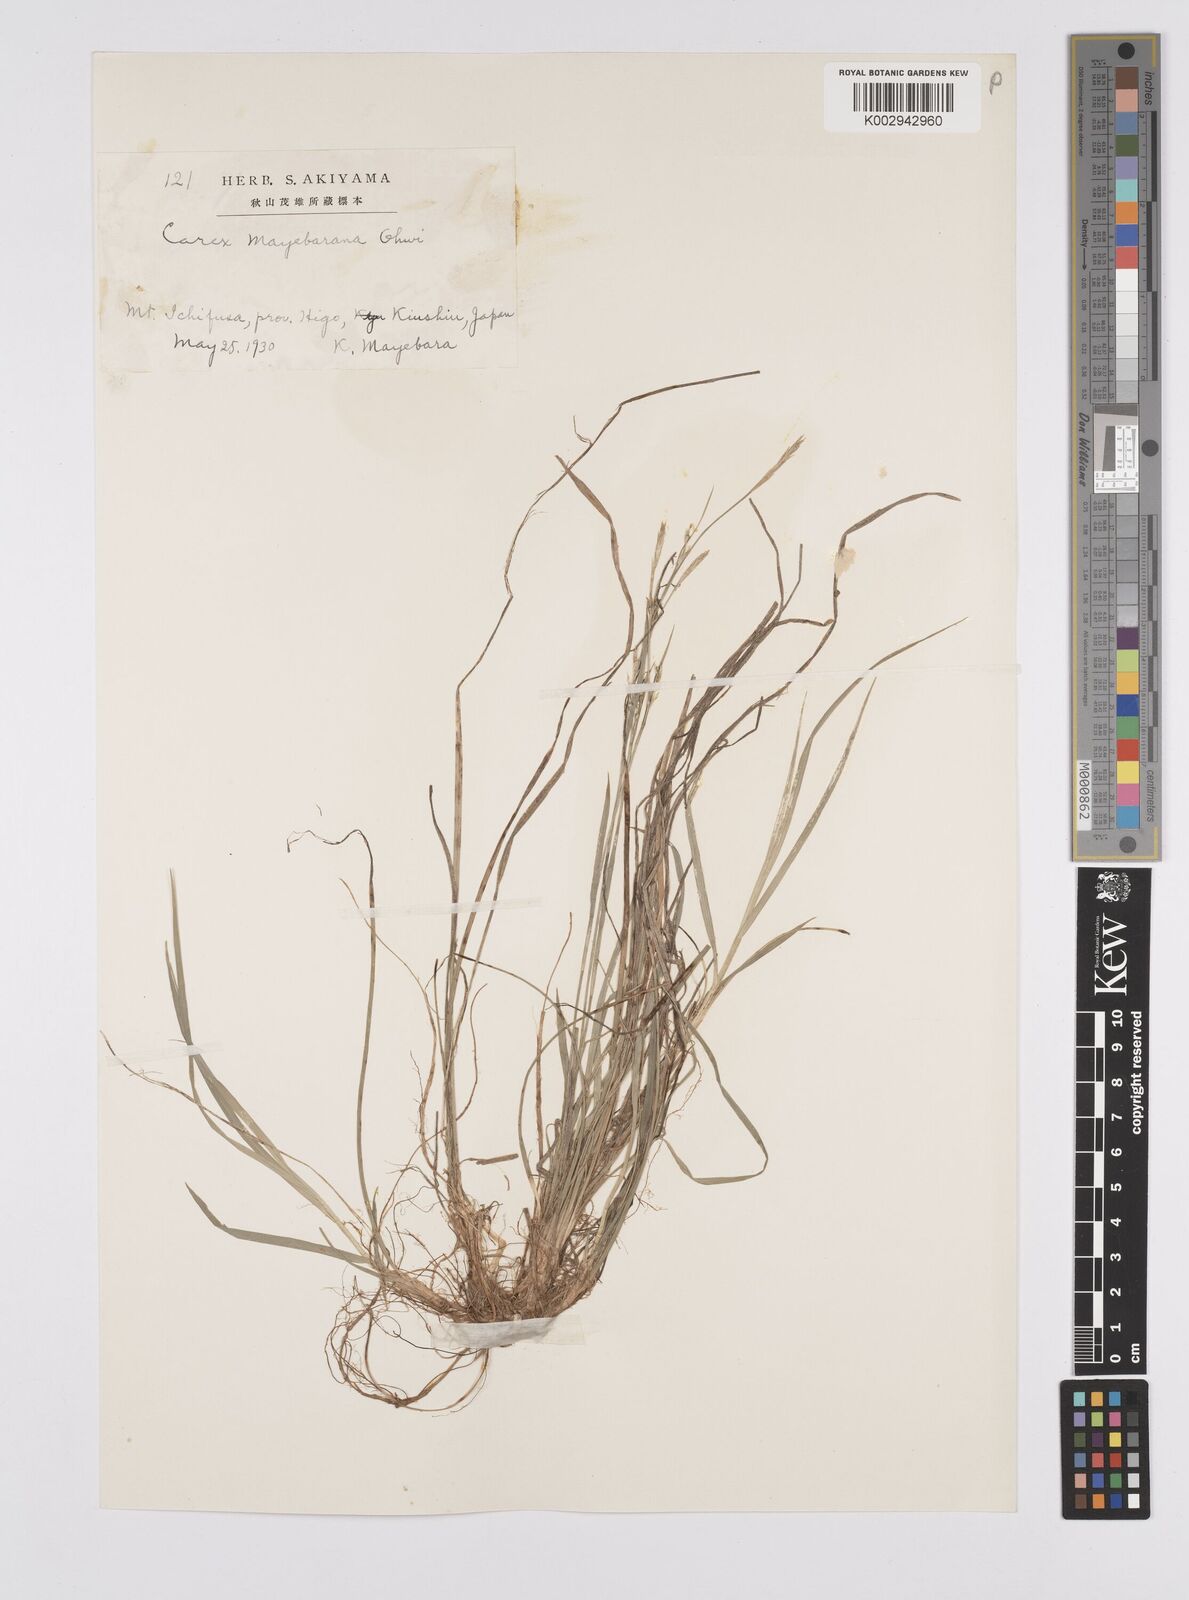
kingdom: Plantae
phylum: Tracheophyta
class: Liliopsida
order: Poales
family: Cyperaceae
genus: Carex
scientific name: Carex mayebarana
